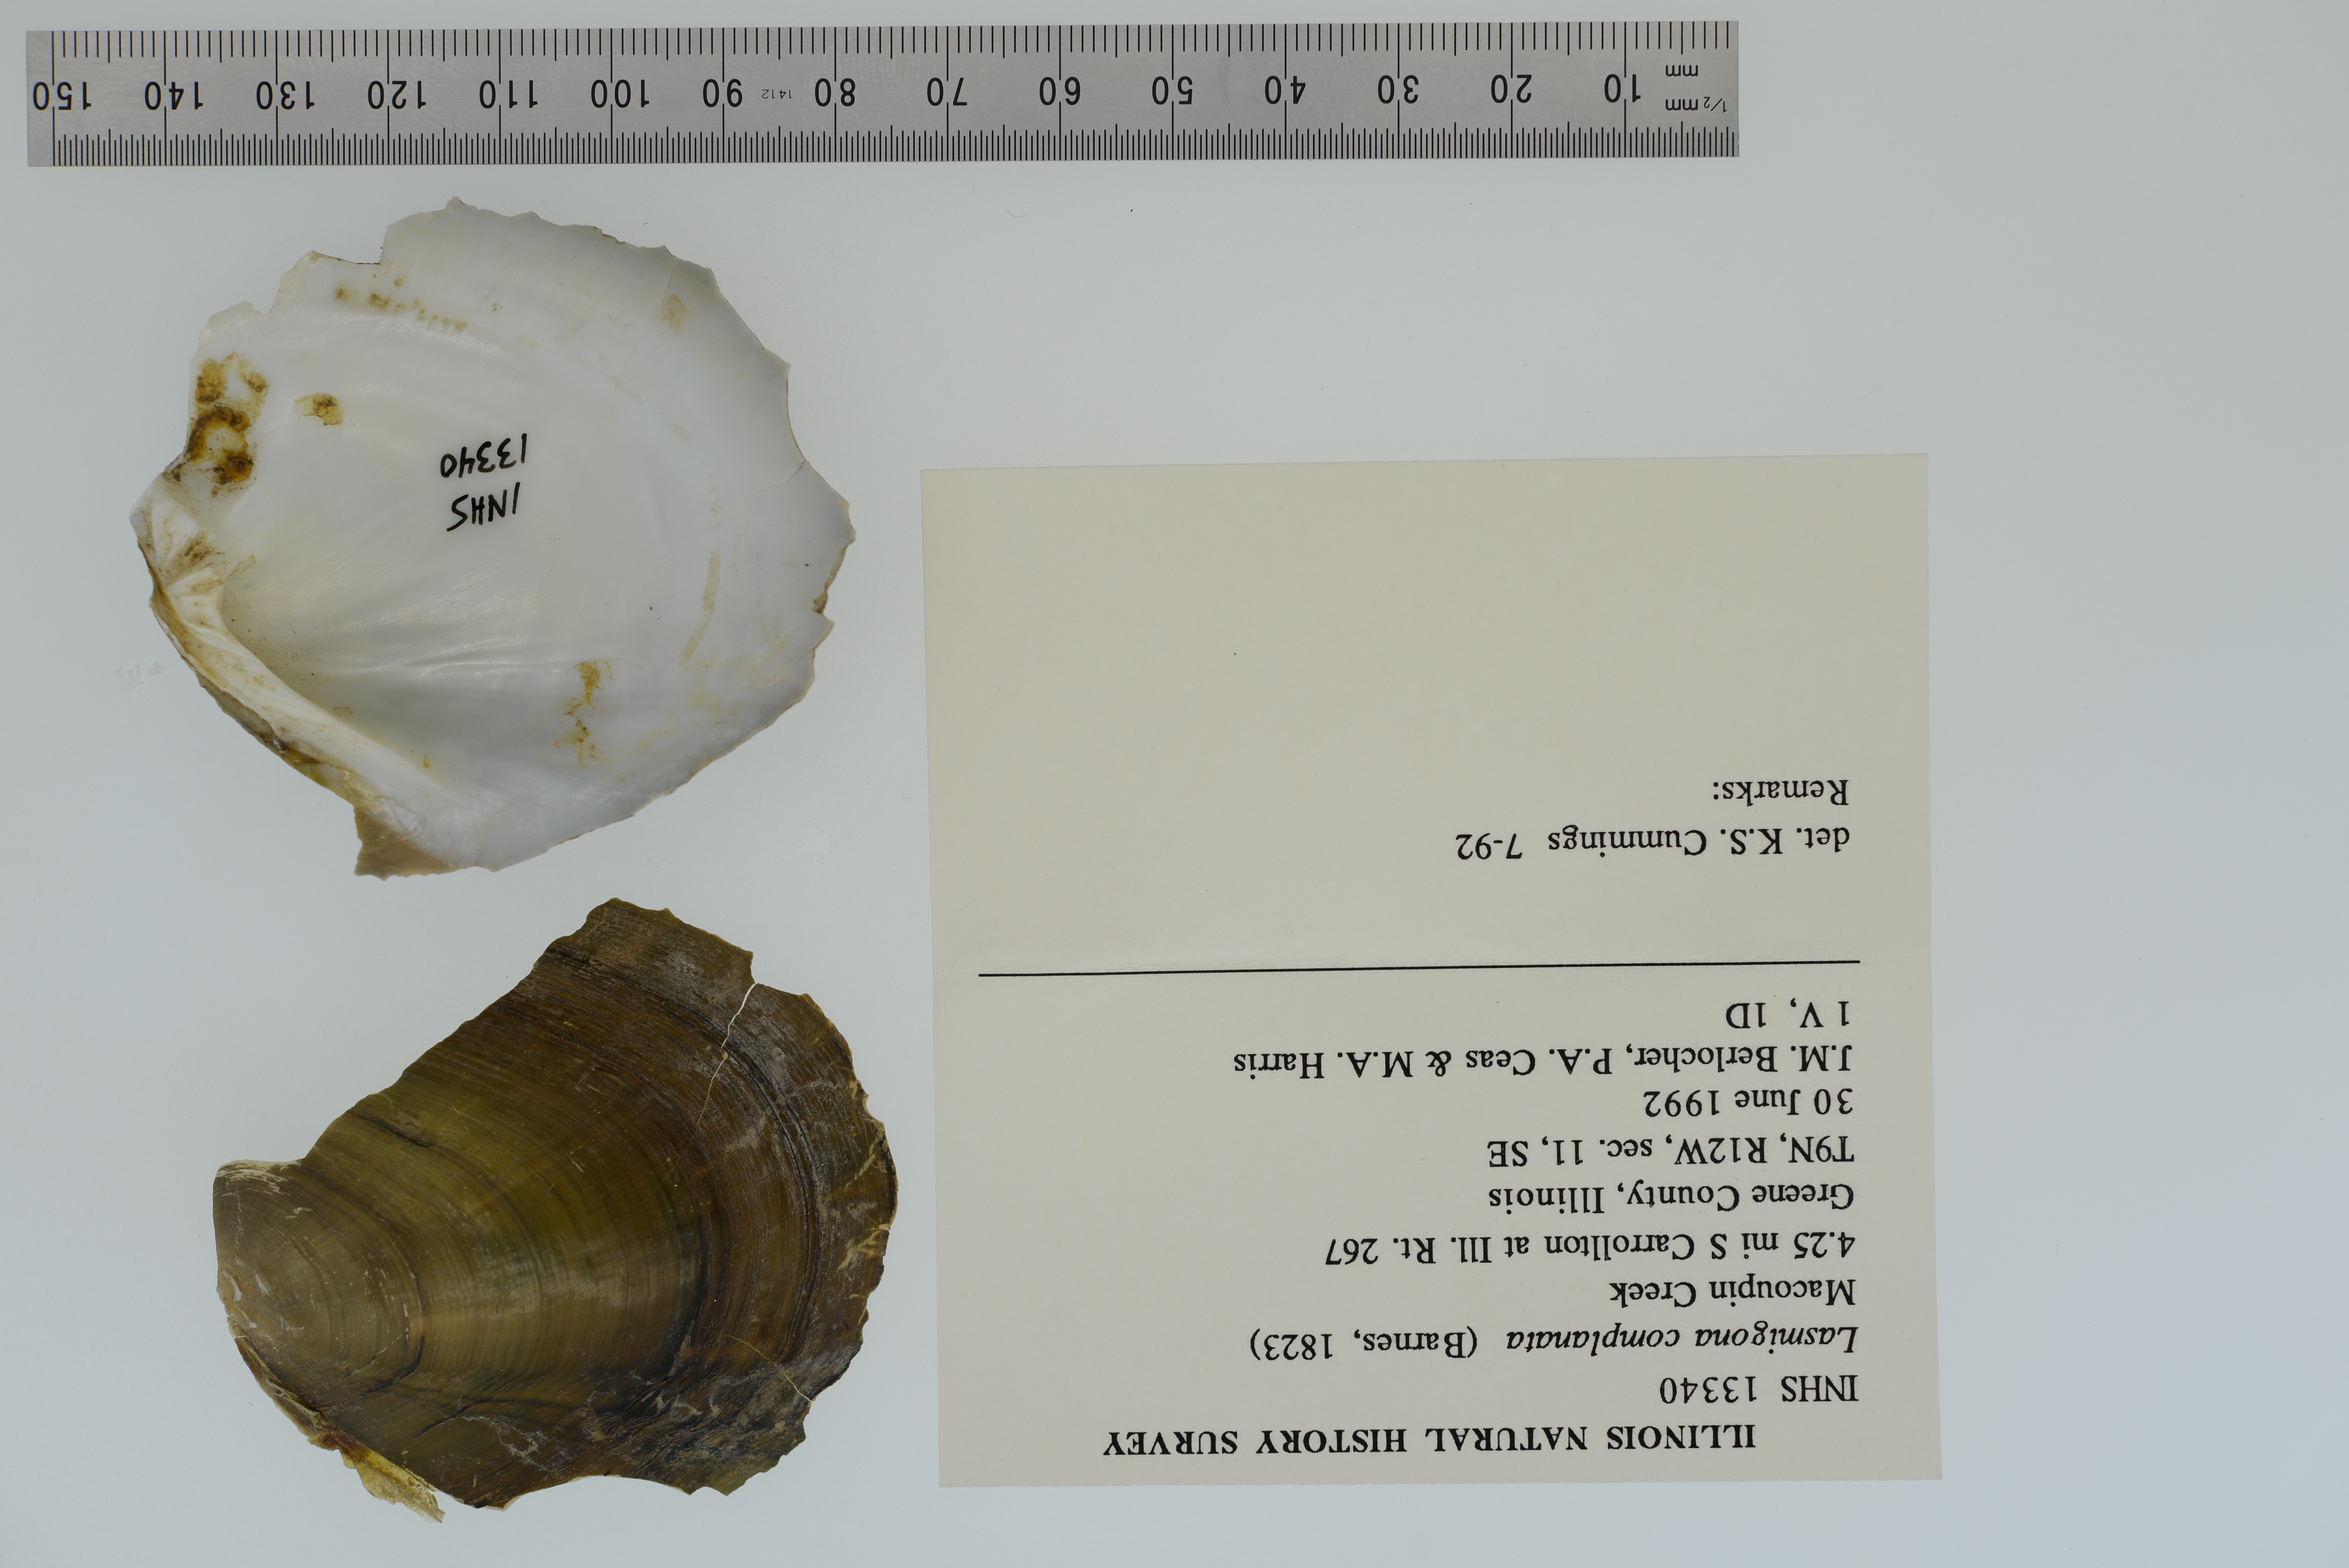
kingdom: Animalia
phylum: Mollusca
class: Bivalvia
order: Unionida
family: Unionidae
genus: Lasmigona
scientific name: Lasmigona complanata
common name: White heelsplitter
